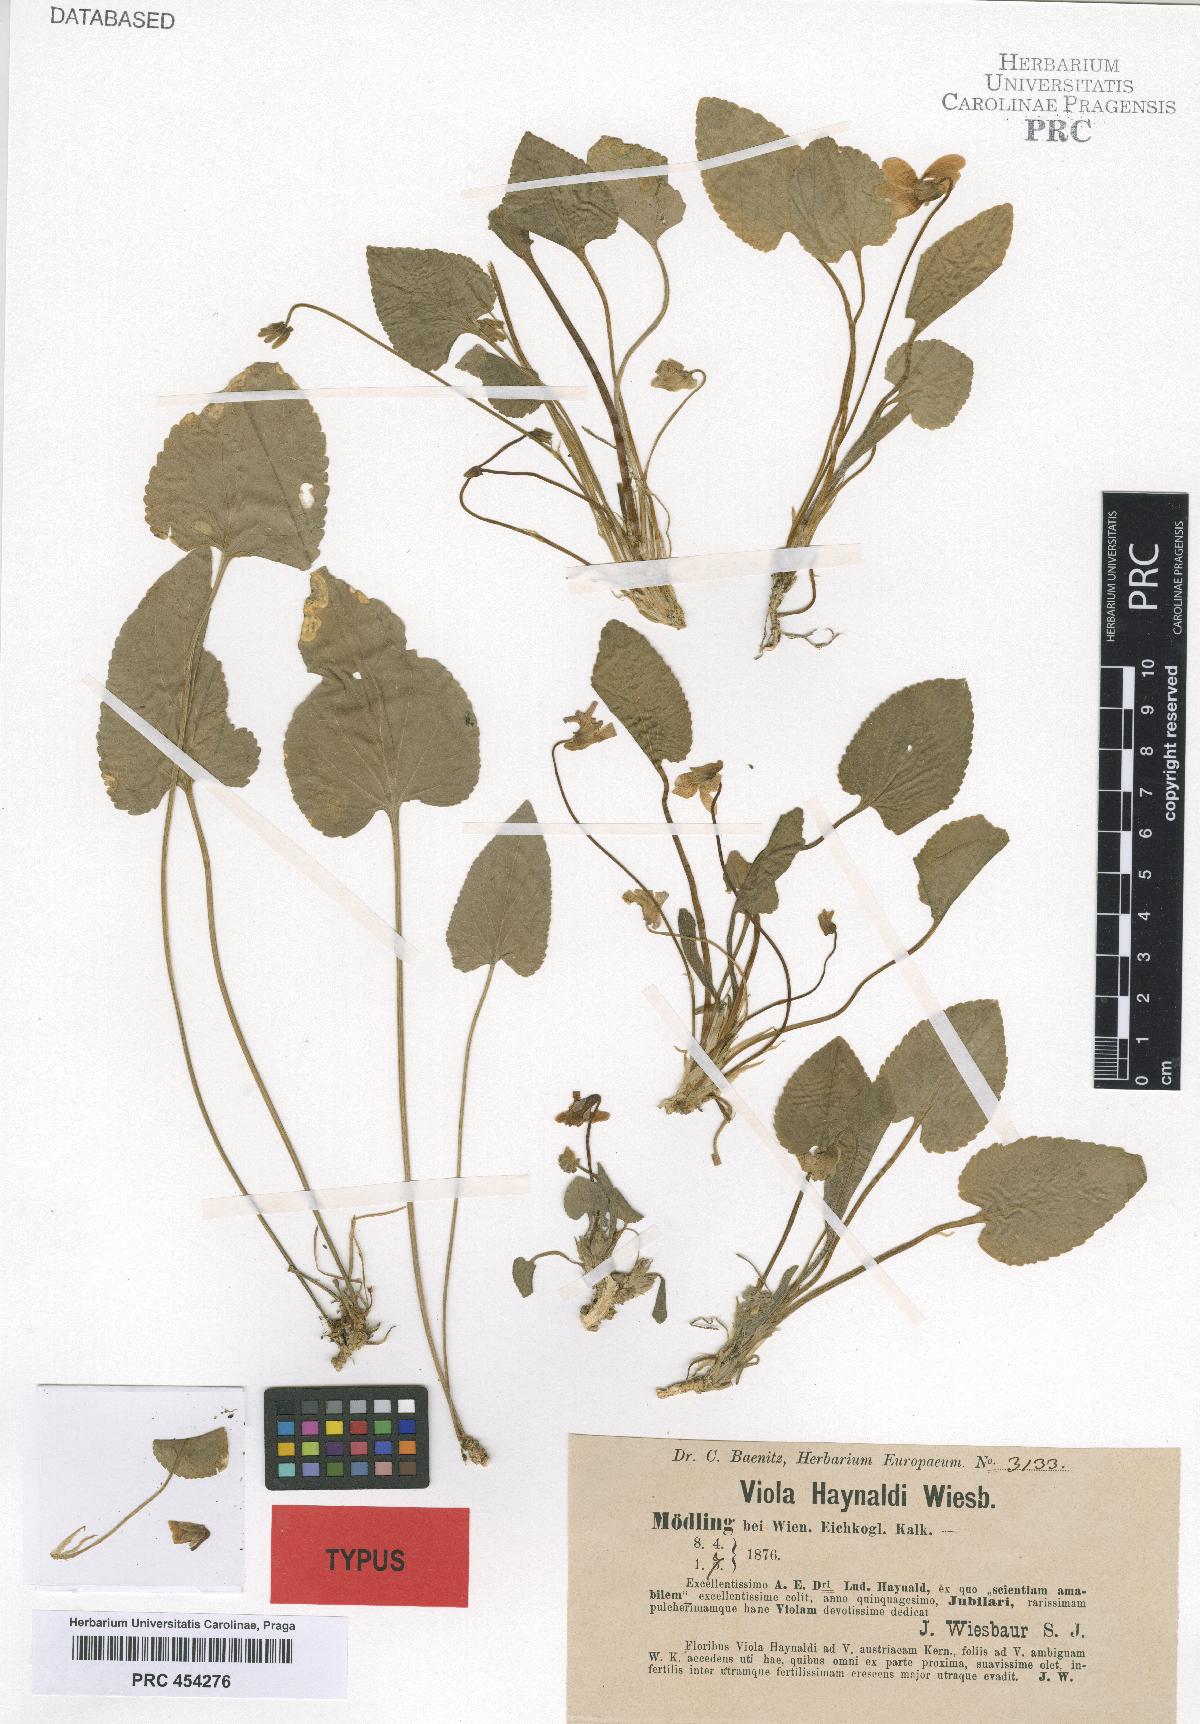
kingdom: Plantae
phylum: Tracheophyta
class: Magnoliopsida
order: Malpighiales
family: Violaceae
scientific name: Violaceae
